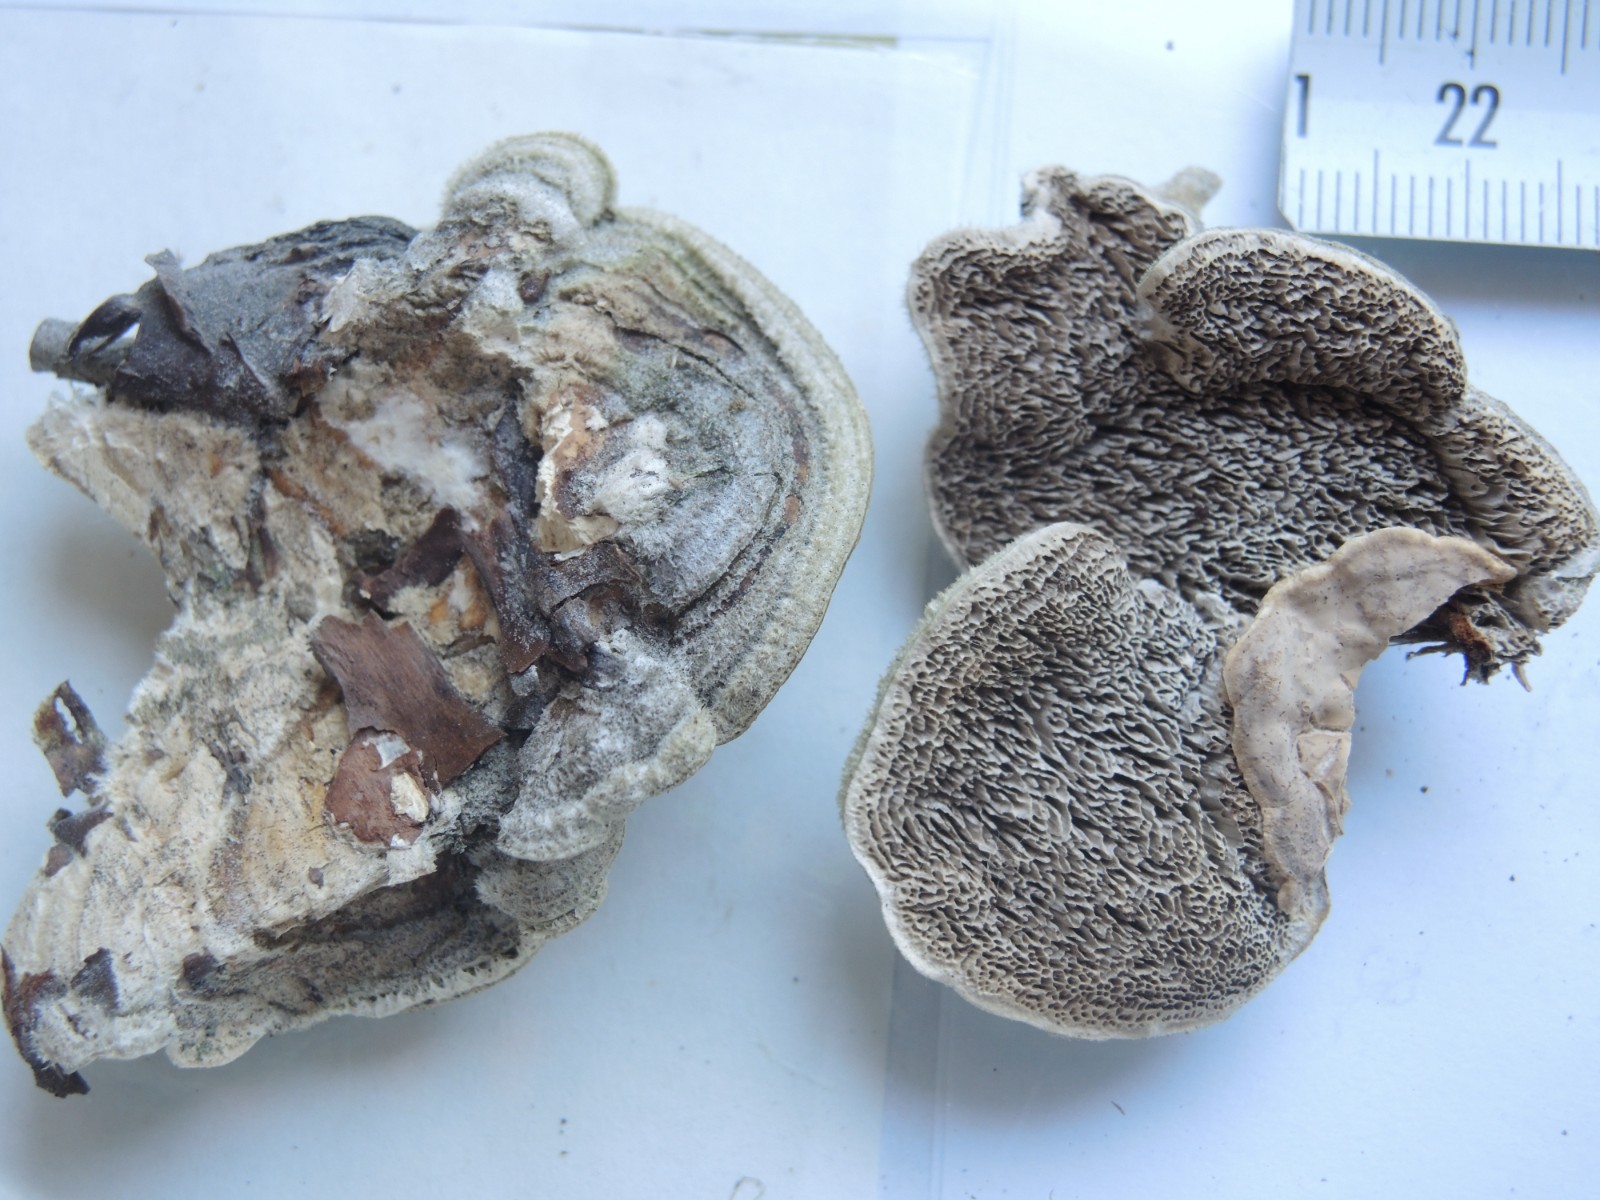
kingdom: Fungi
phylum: Basidiomycota
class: Agaricomycetes
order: Polyporales
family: Cerrenaceae
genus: Cerrena
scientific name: Cerrena unicolor
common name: ensfarvet læderporesvamp
